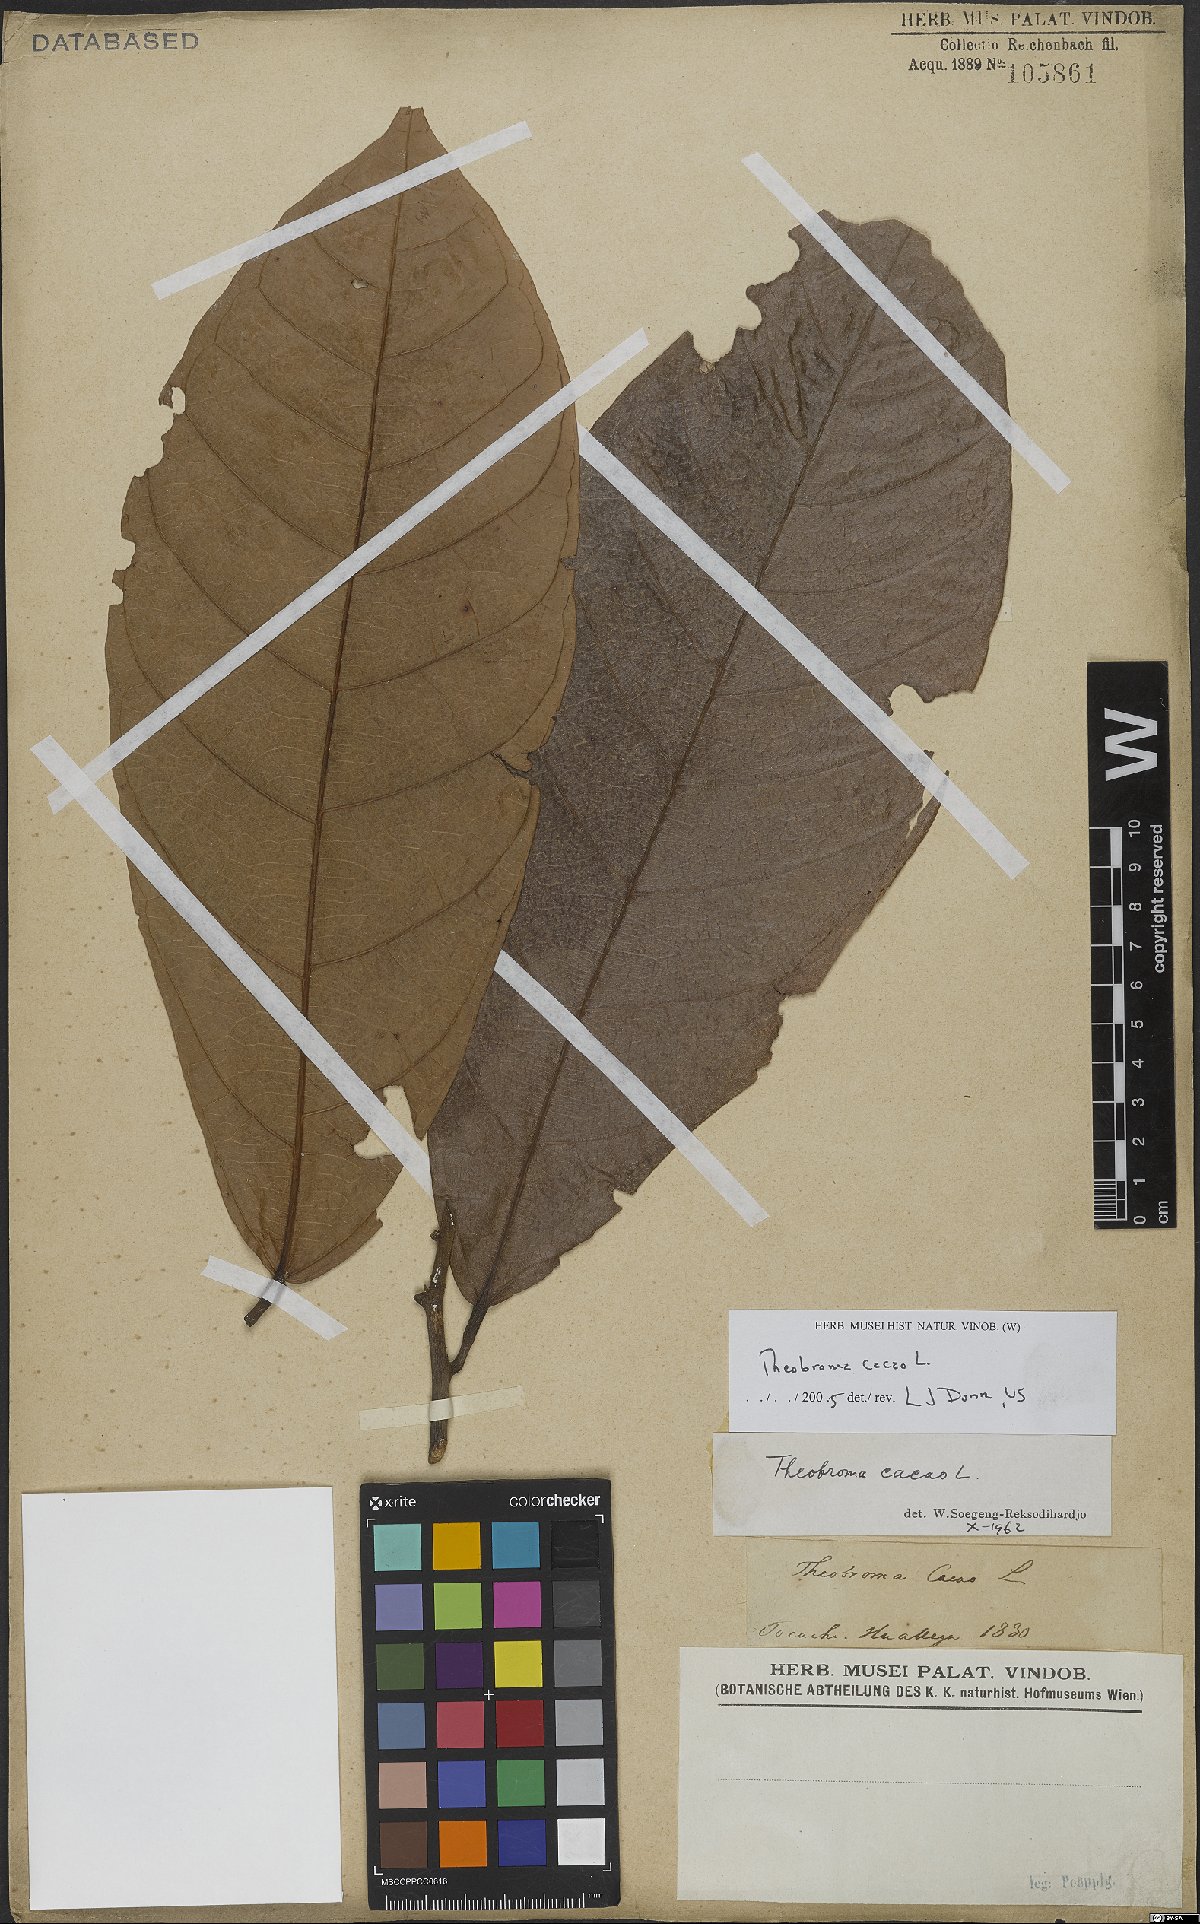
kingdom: Plantae
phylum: Tracheophyta
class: Magnoliopsida
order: Malvales
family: Malvaceae
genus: Theobroma
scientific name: Theobroma cacao
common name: Cocoa
